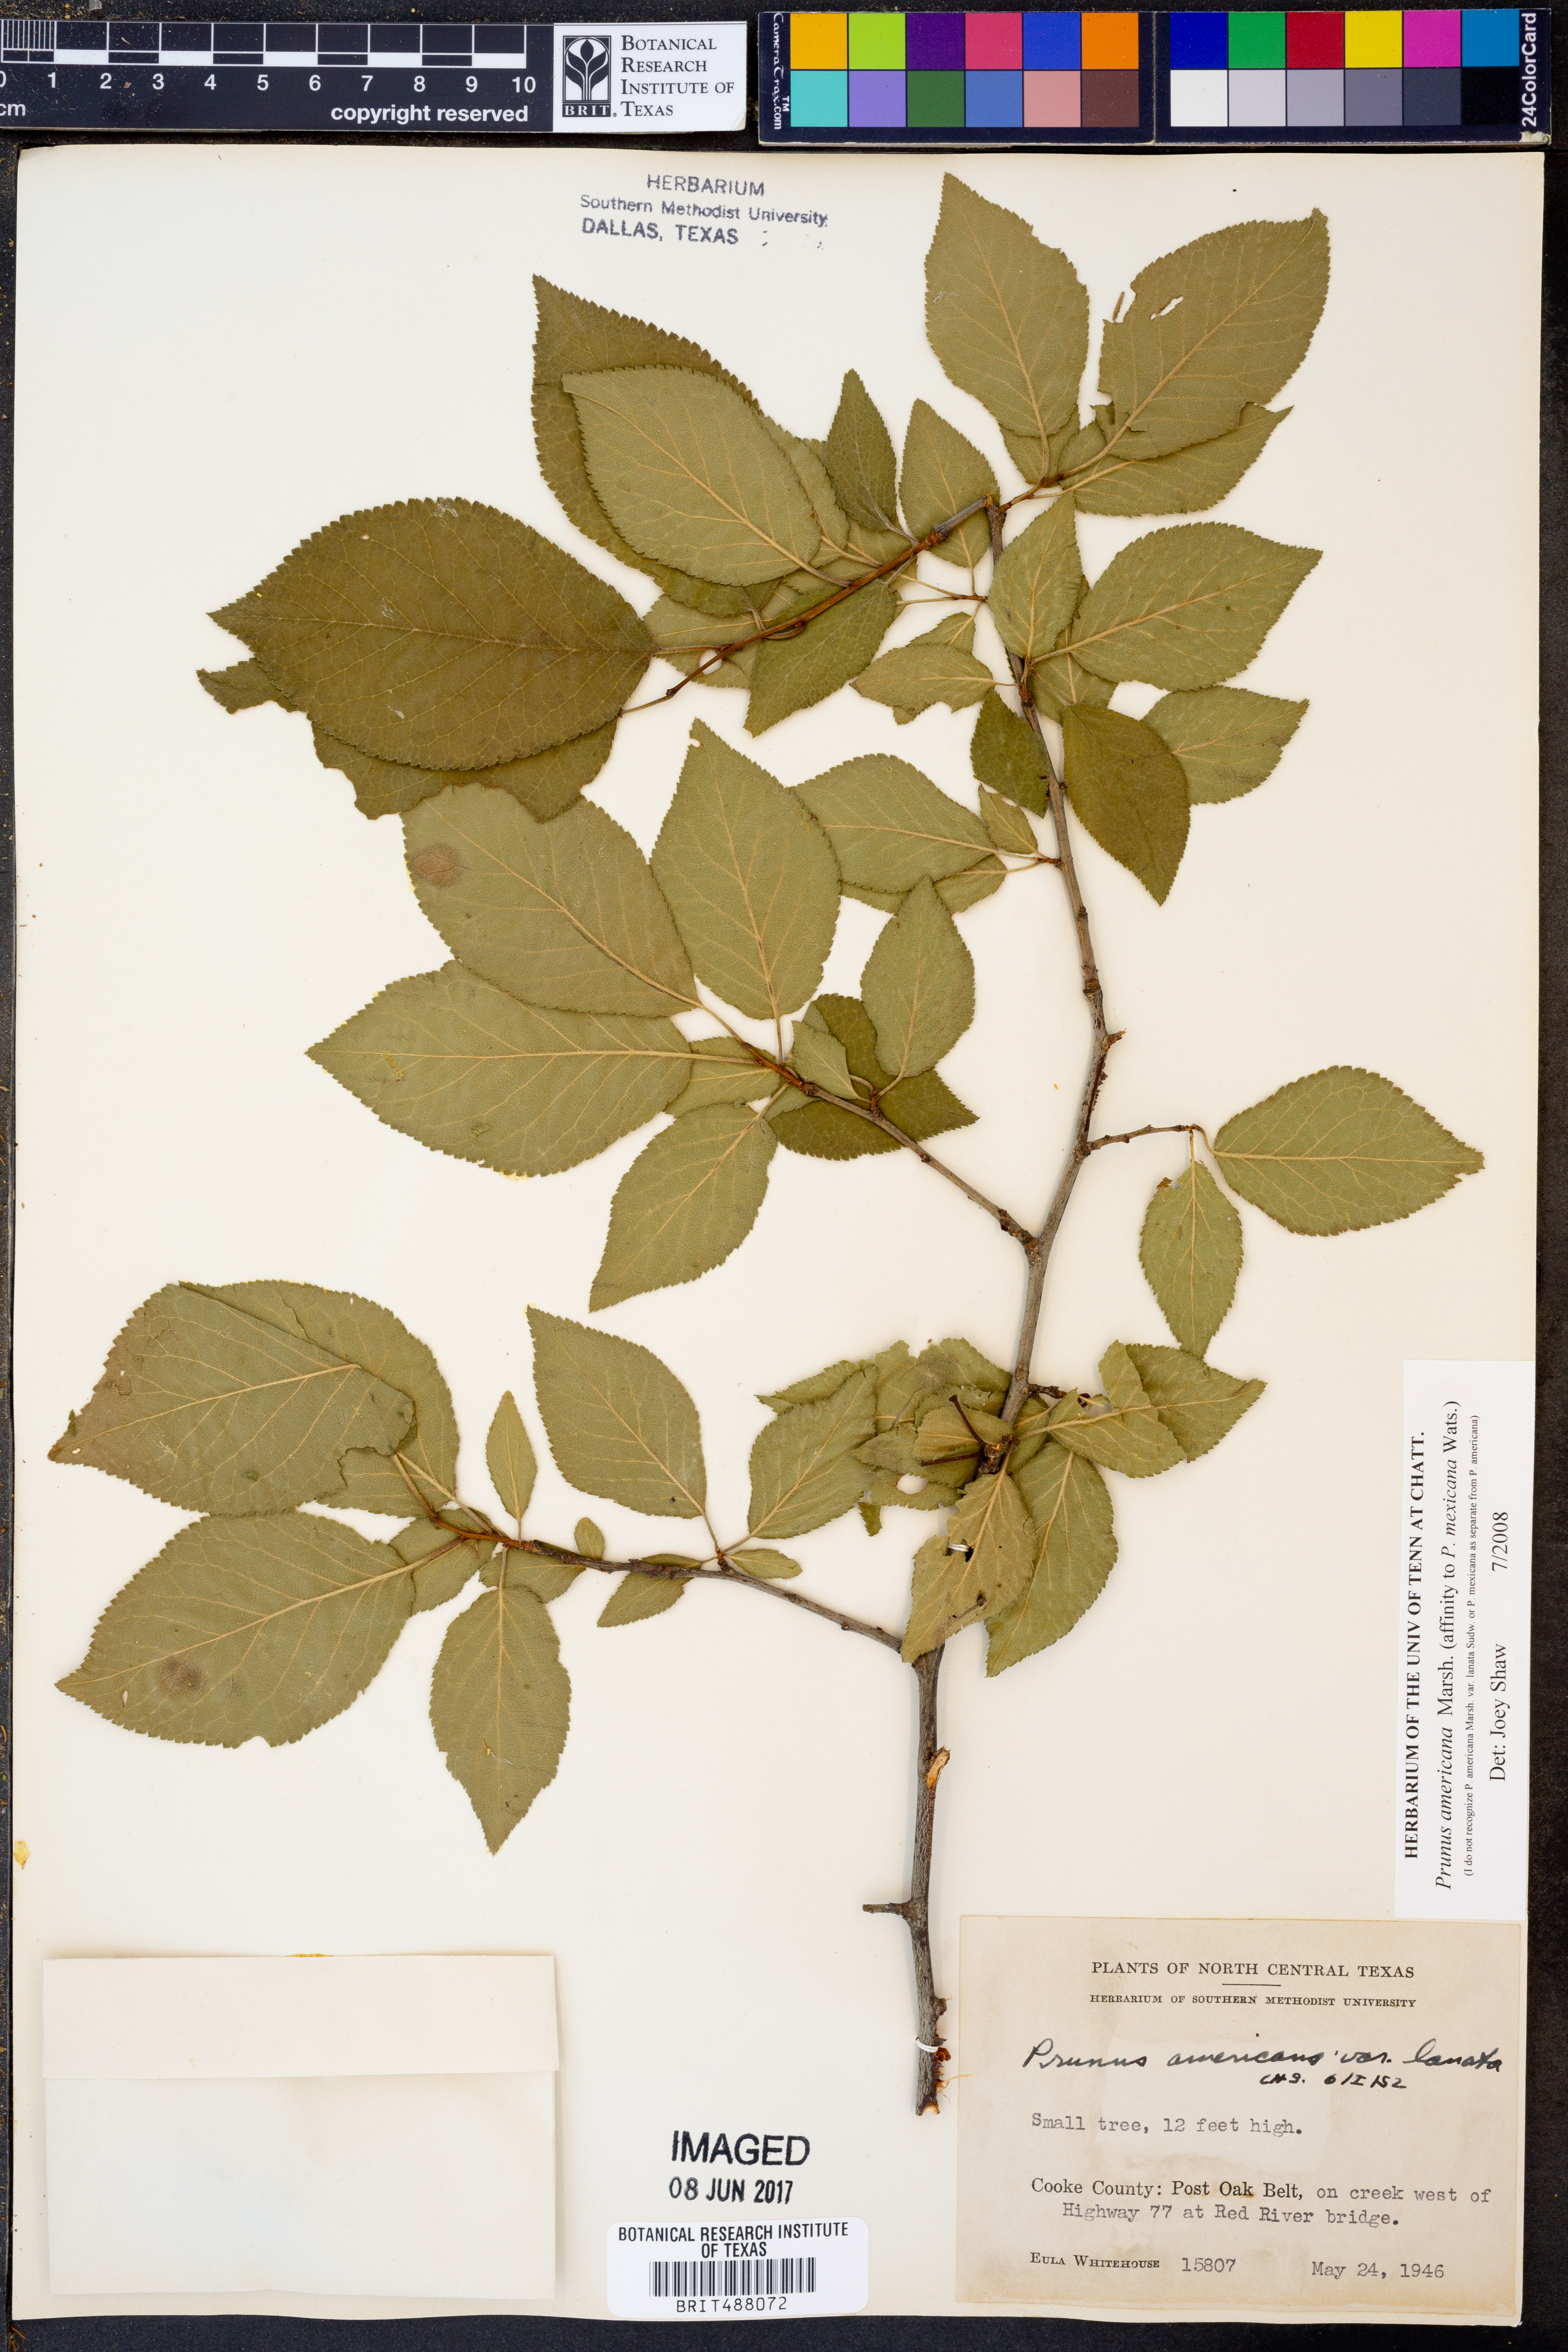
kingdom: Plantae
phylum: Tracheophyta
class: Magnoliopsida
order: Rosales
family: Rosaceae
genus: Prunus
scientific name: Prunus americana
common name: American plum
